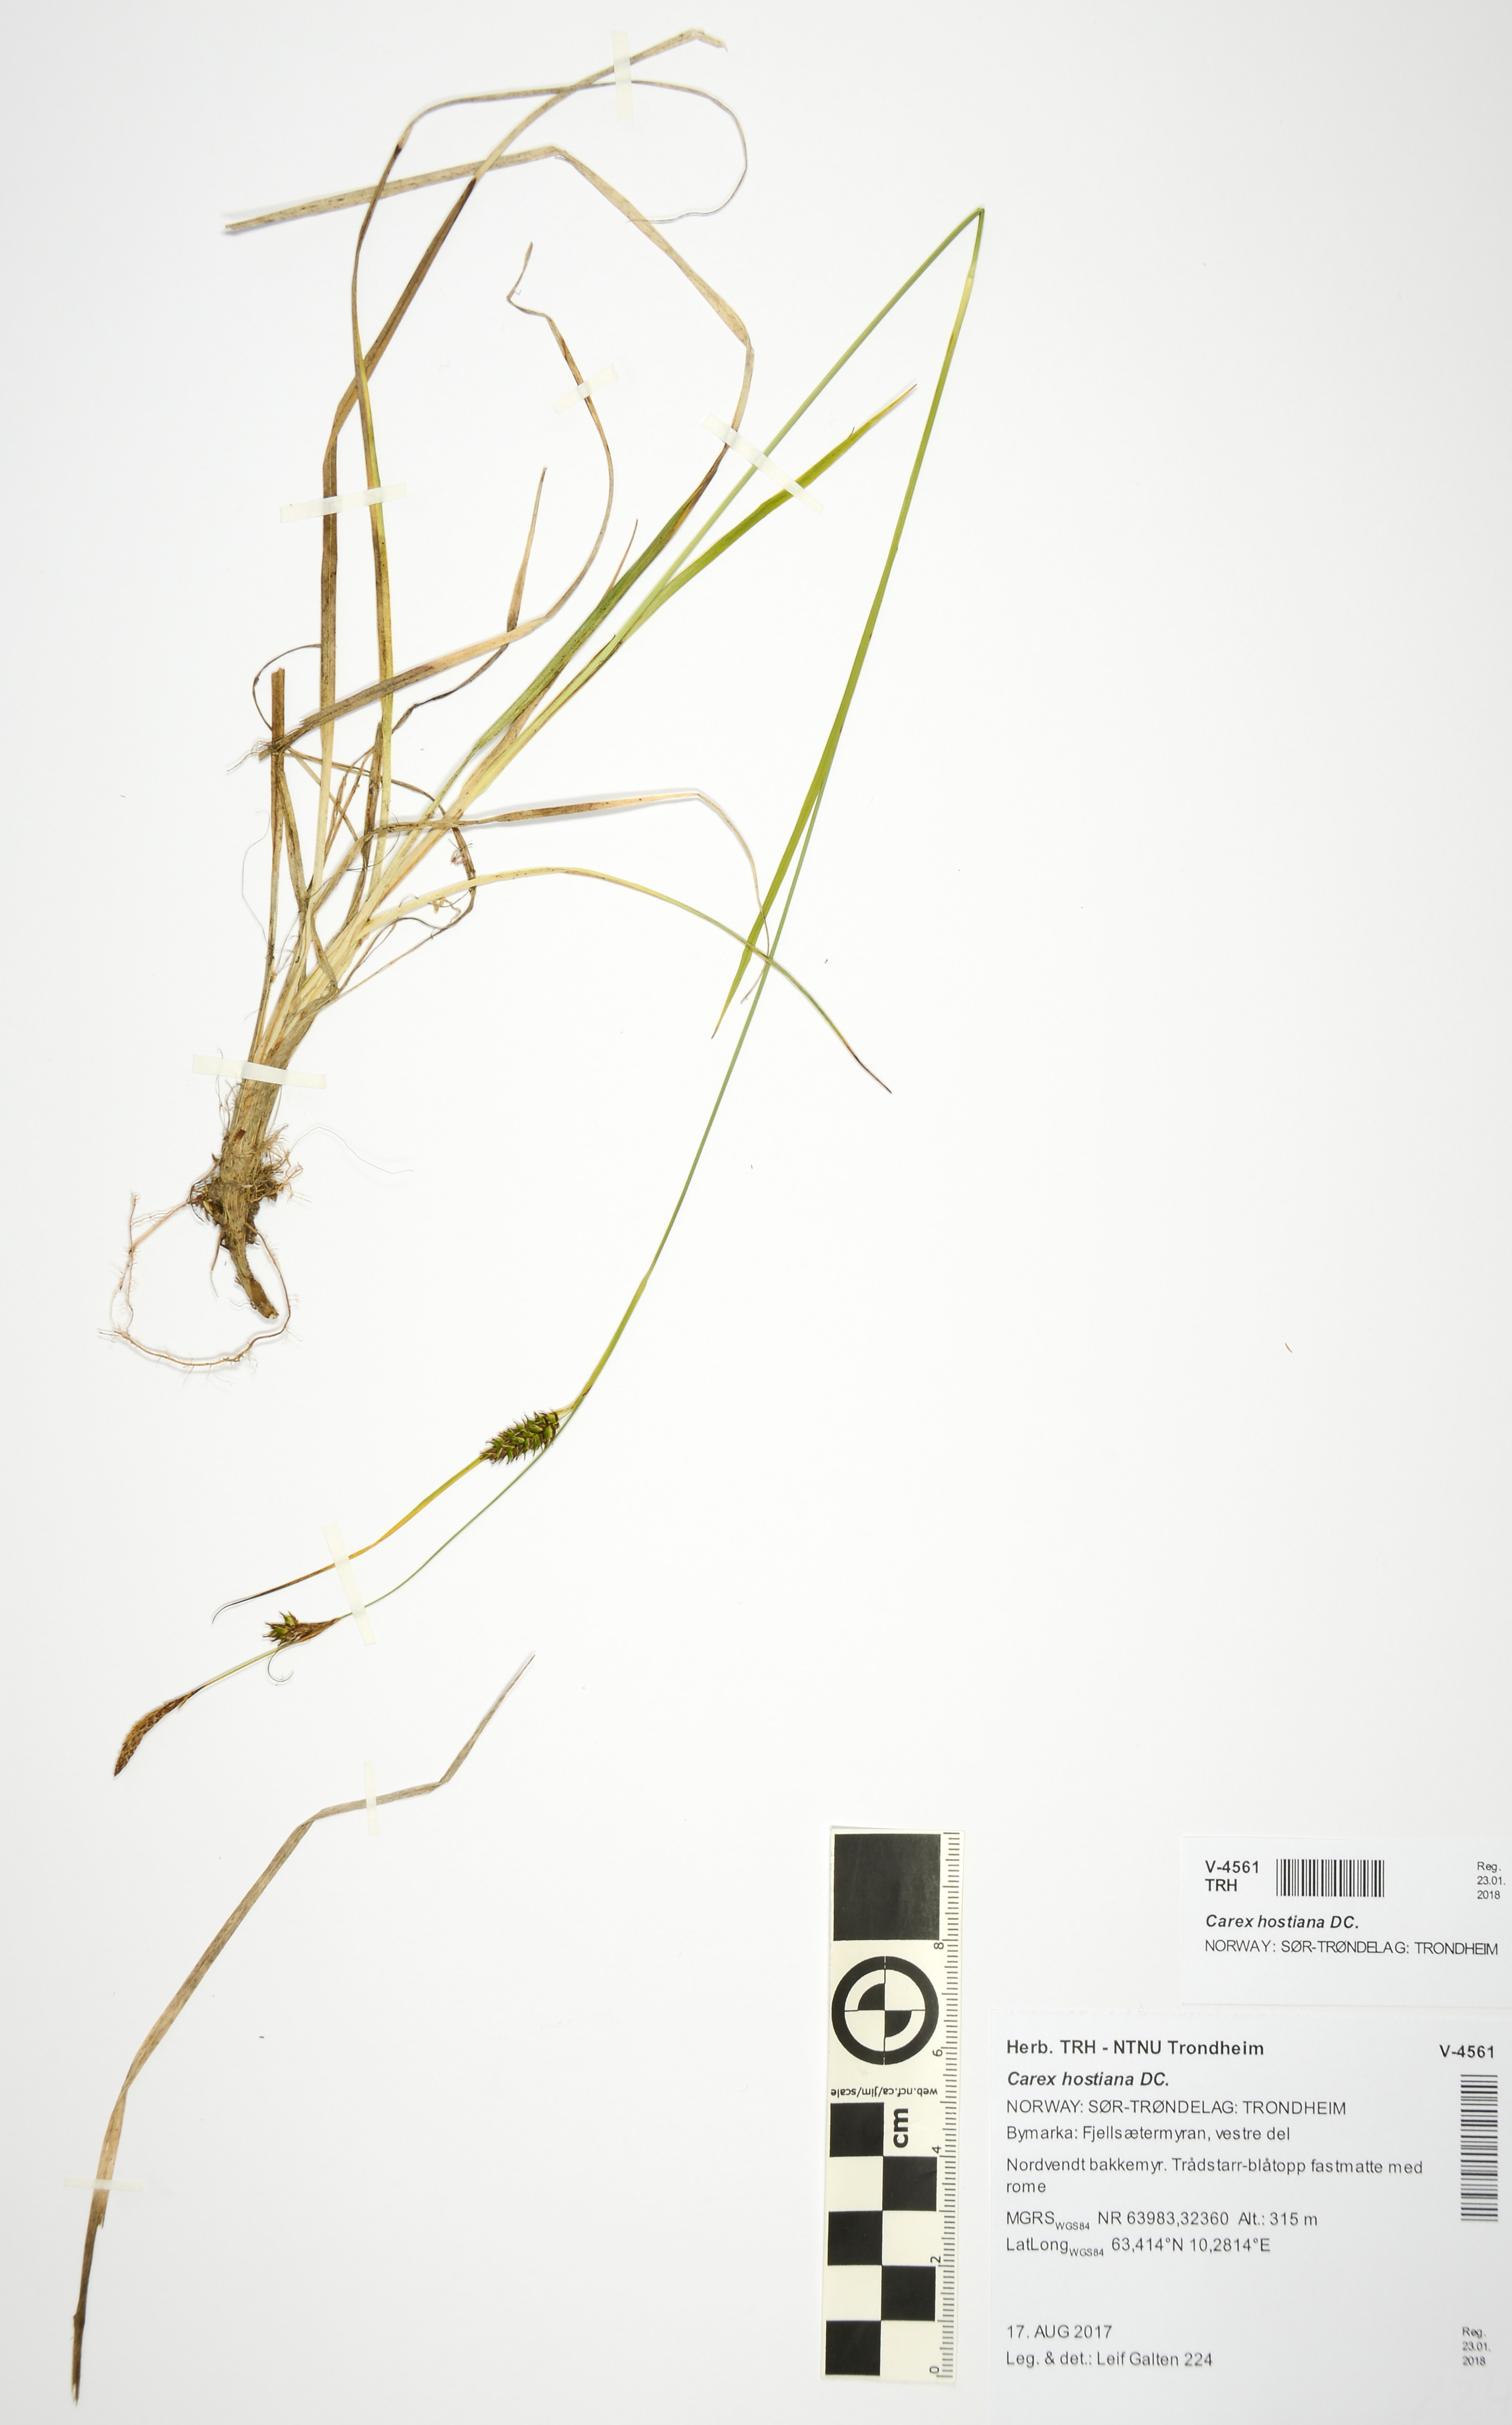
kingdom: Plantae
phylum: Tracheophyta
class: Liliopsida
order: Poales
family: Cyperaceae
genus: Carex
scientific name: Carex hostiana
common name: Tawny sedge
